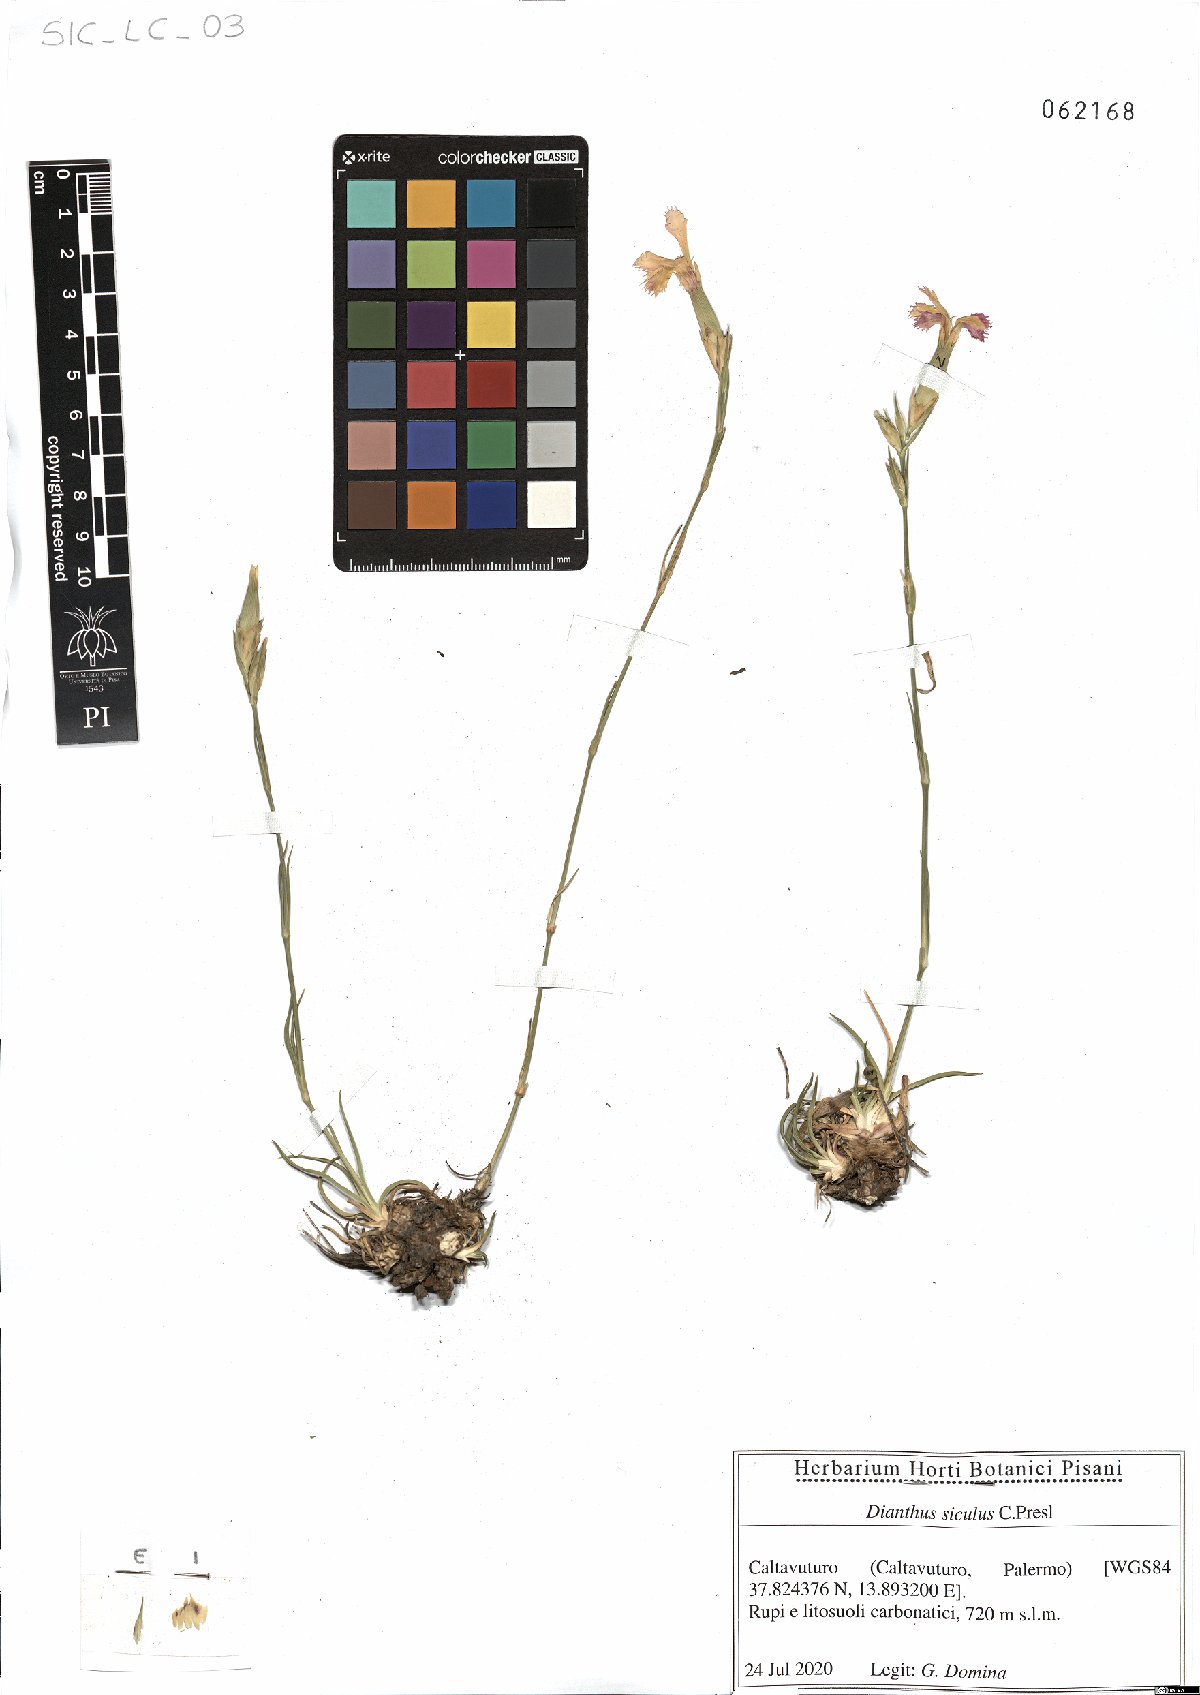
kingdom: Plantae
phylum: Tracheophyta
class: Magnoliopsida
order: Caryophyllales
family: Caryophyllaceae
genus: Dianthus
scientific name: Dianthus siculus
